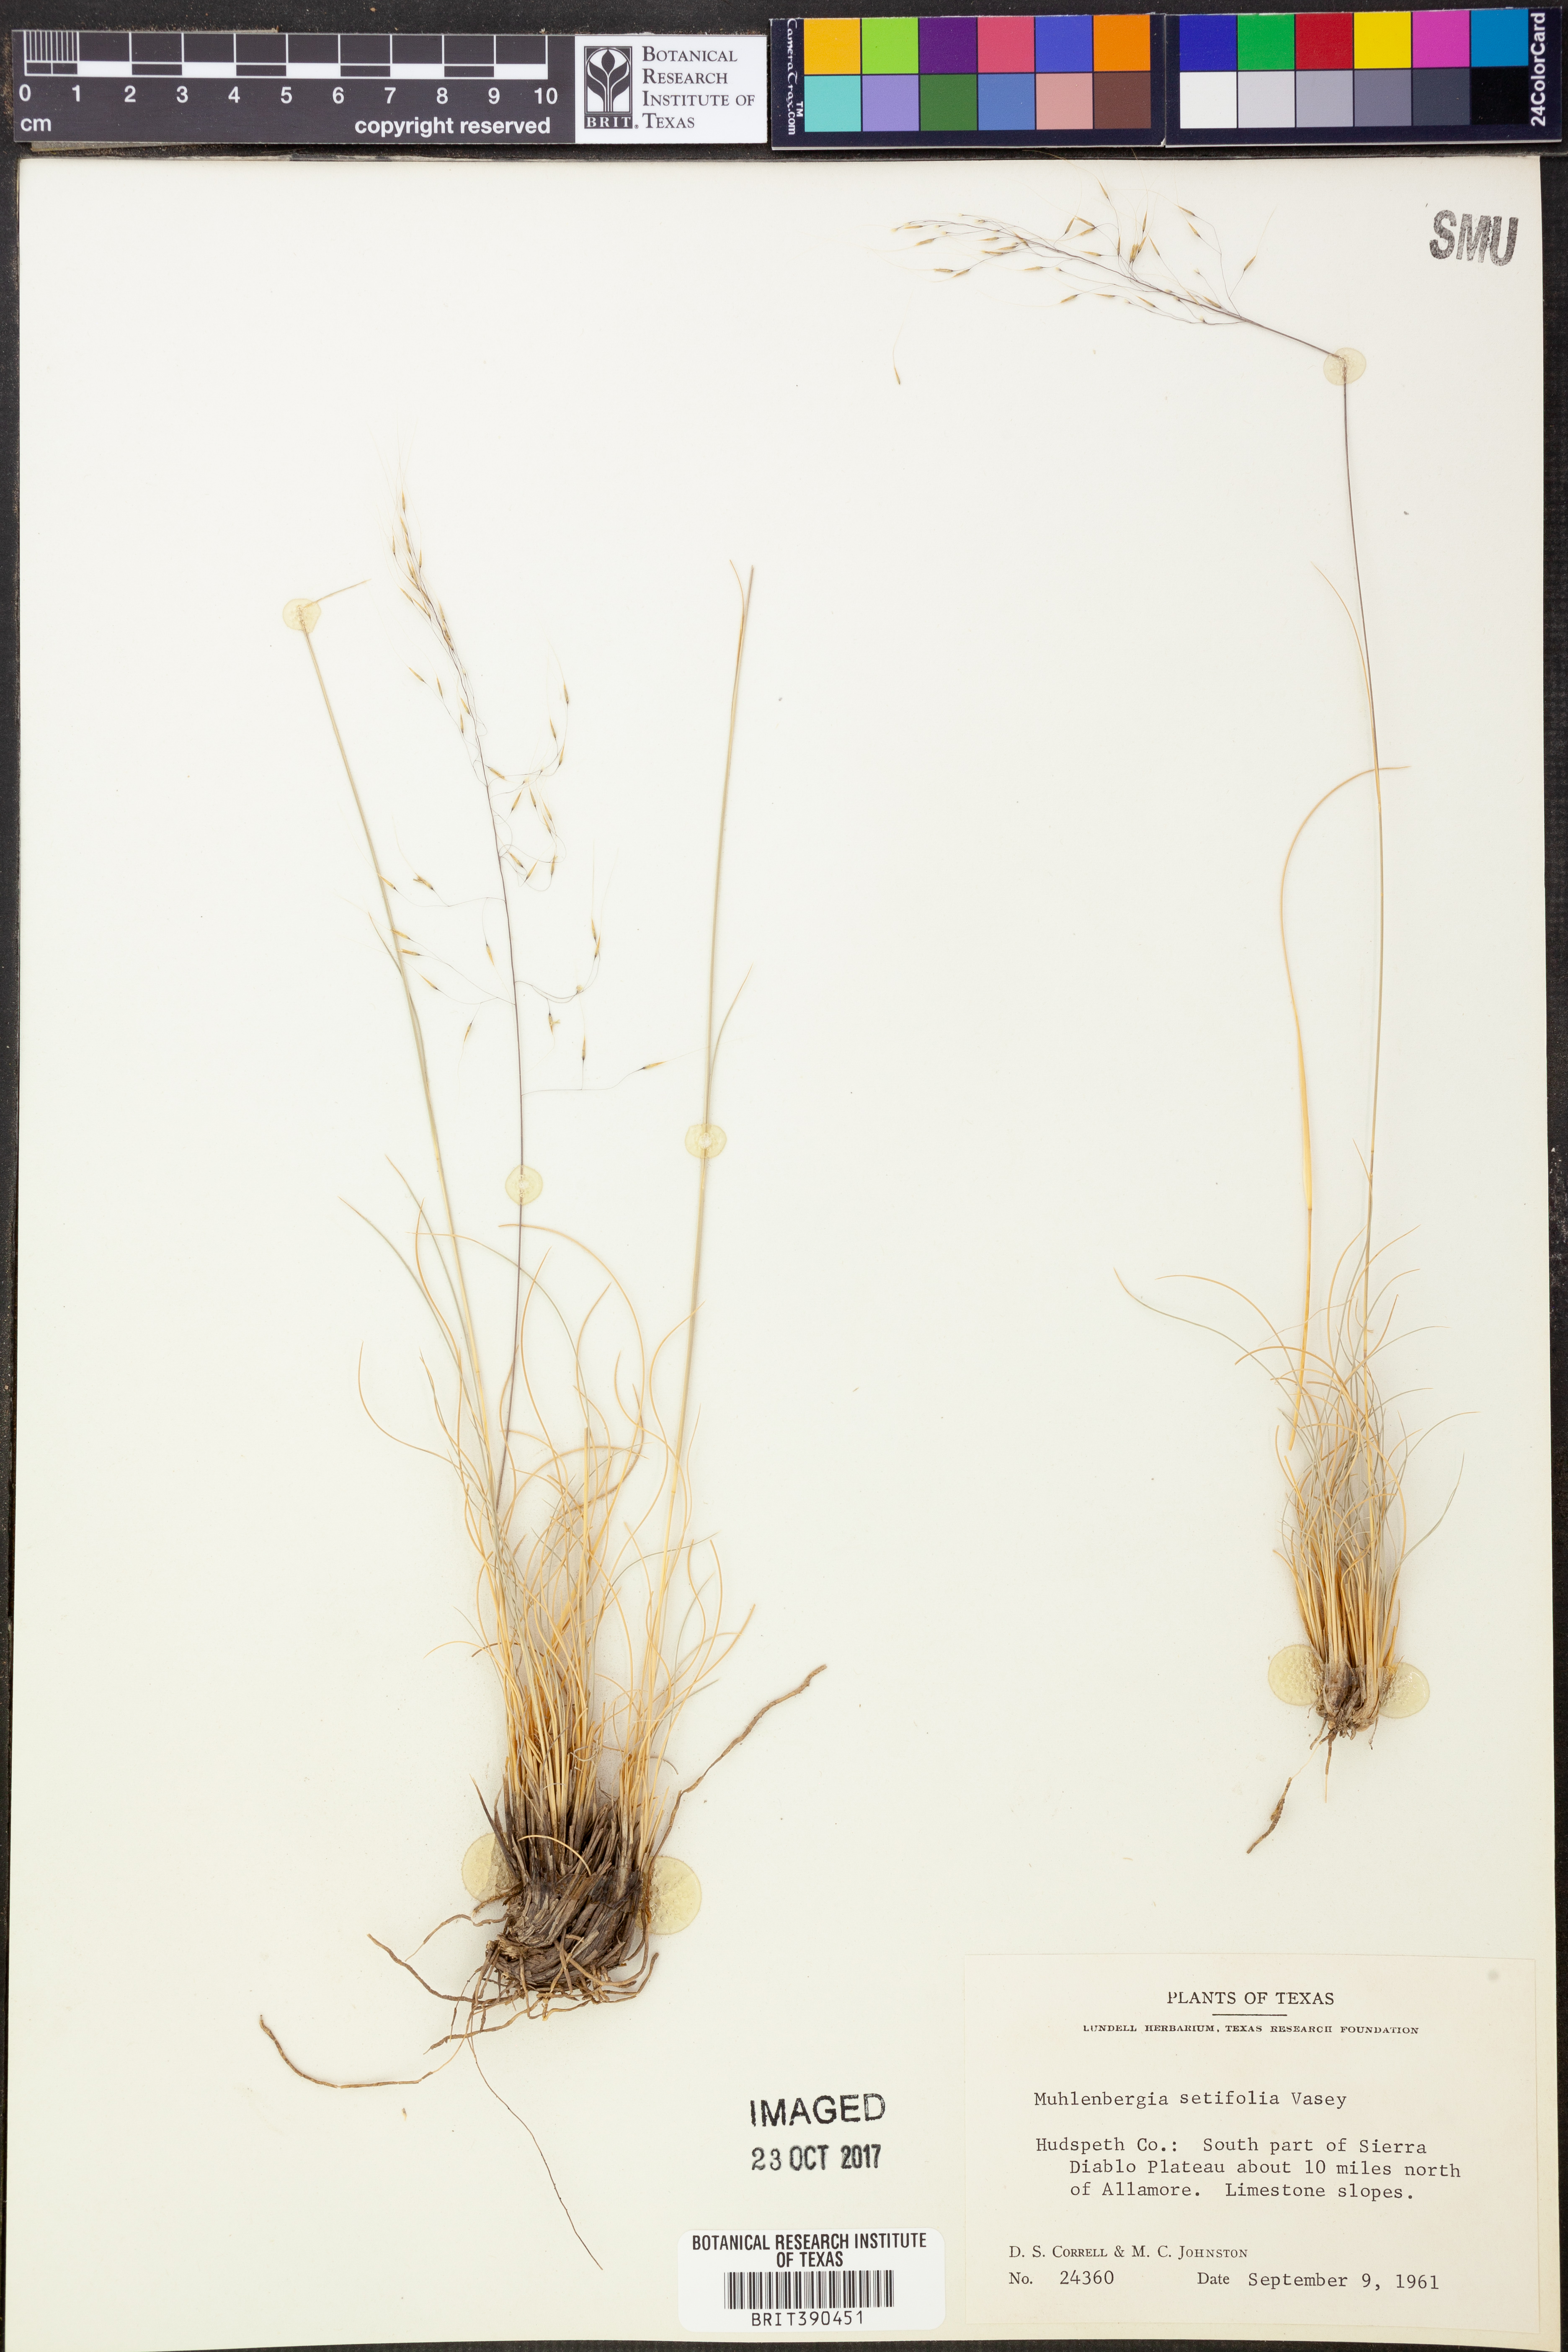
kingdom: Plantae
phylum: Tracheophyta
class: Liliopsida
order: Poales
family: Poaceae
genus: Muhlenbergia
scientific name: Muhlenbergia setifolia
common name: Curly-leaf muhly
